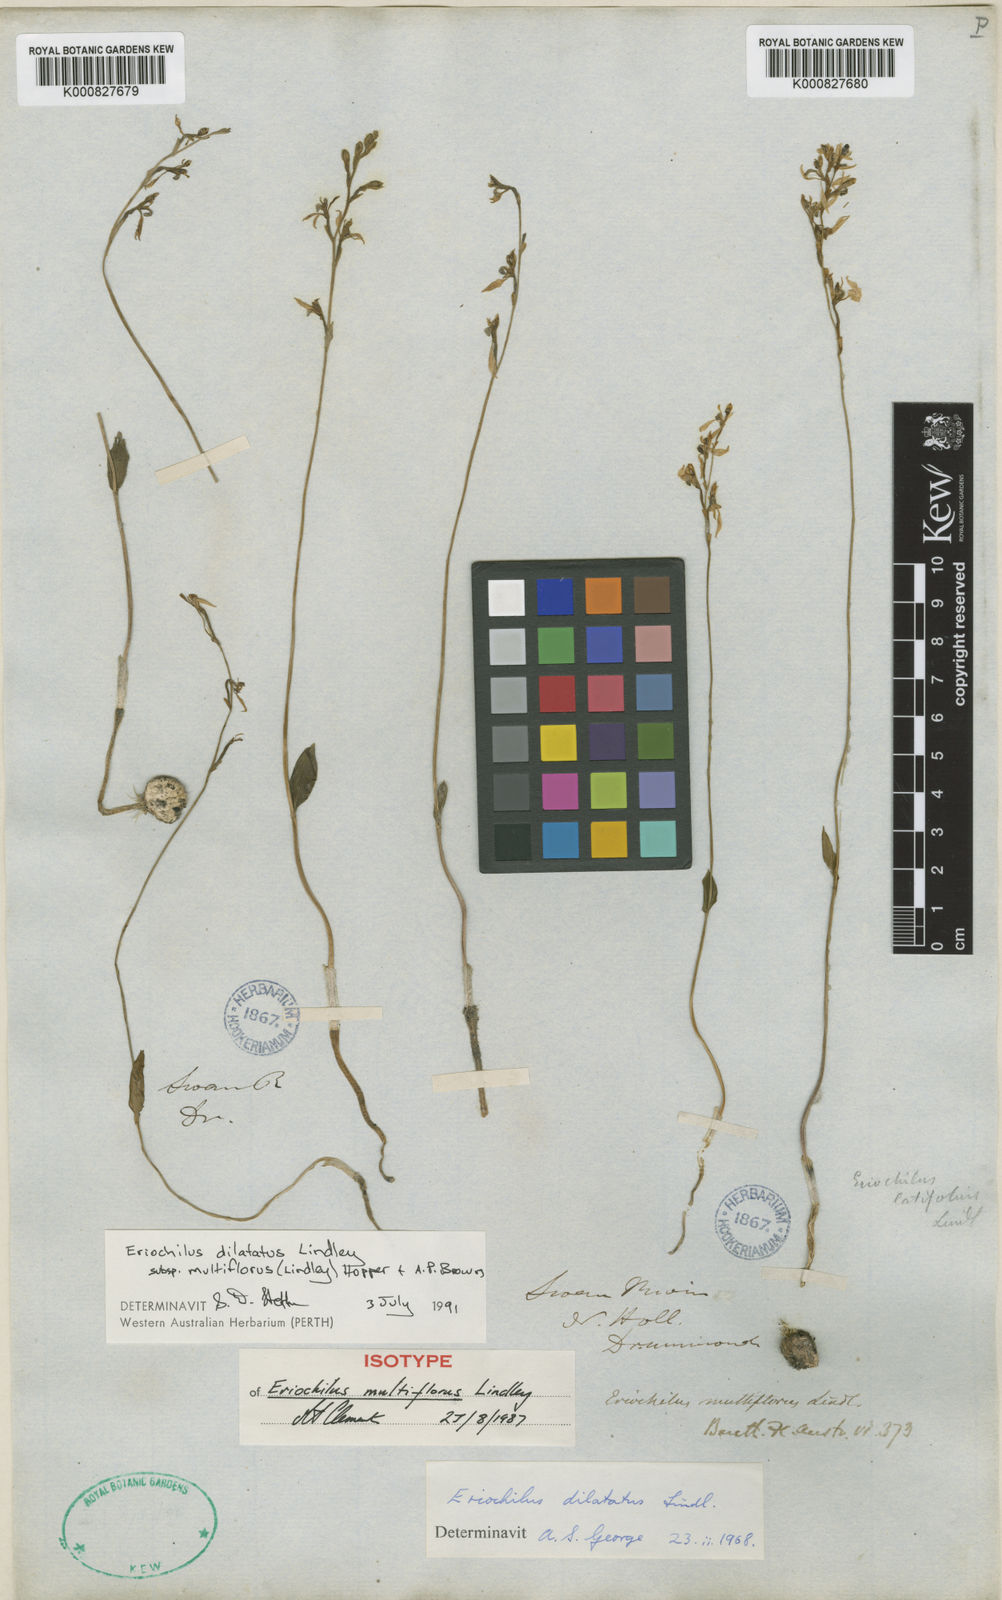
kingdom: Plantae
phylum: Tracheophyta
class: Liliopsida
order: Asparagales
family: Orchidaceae
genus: Eriochilus
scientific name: Eriochilus dilatatus
